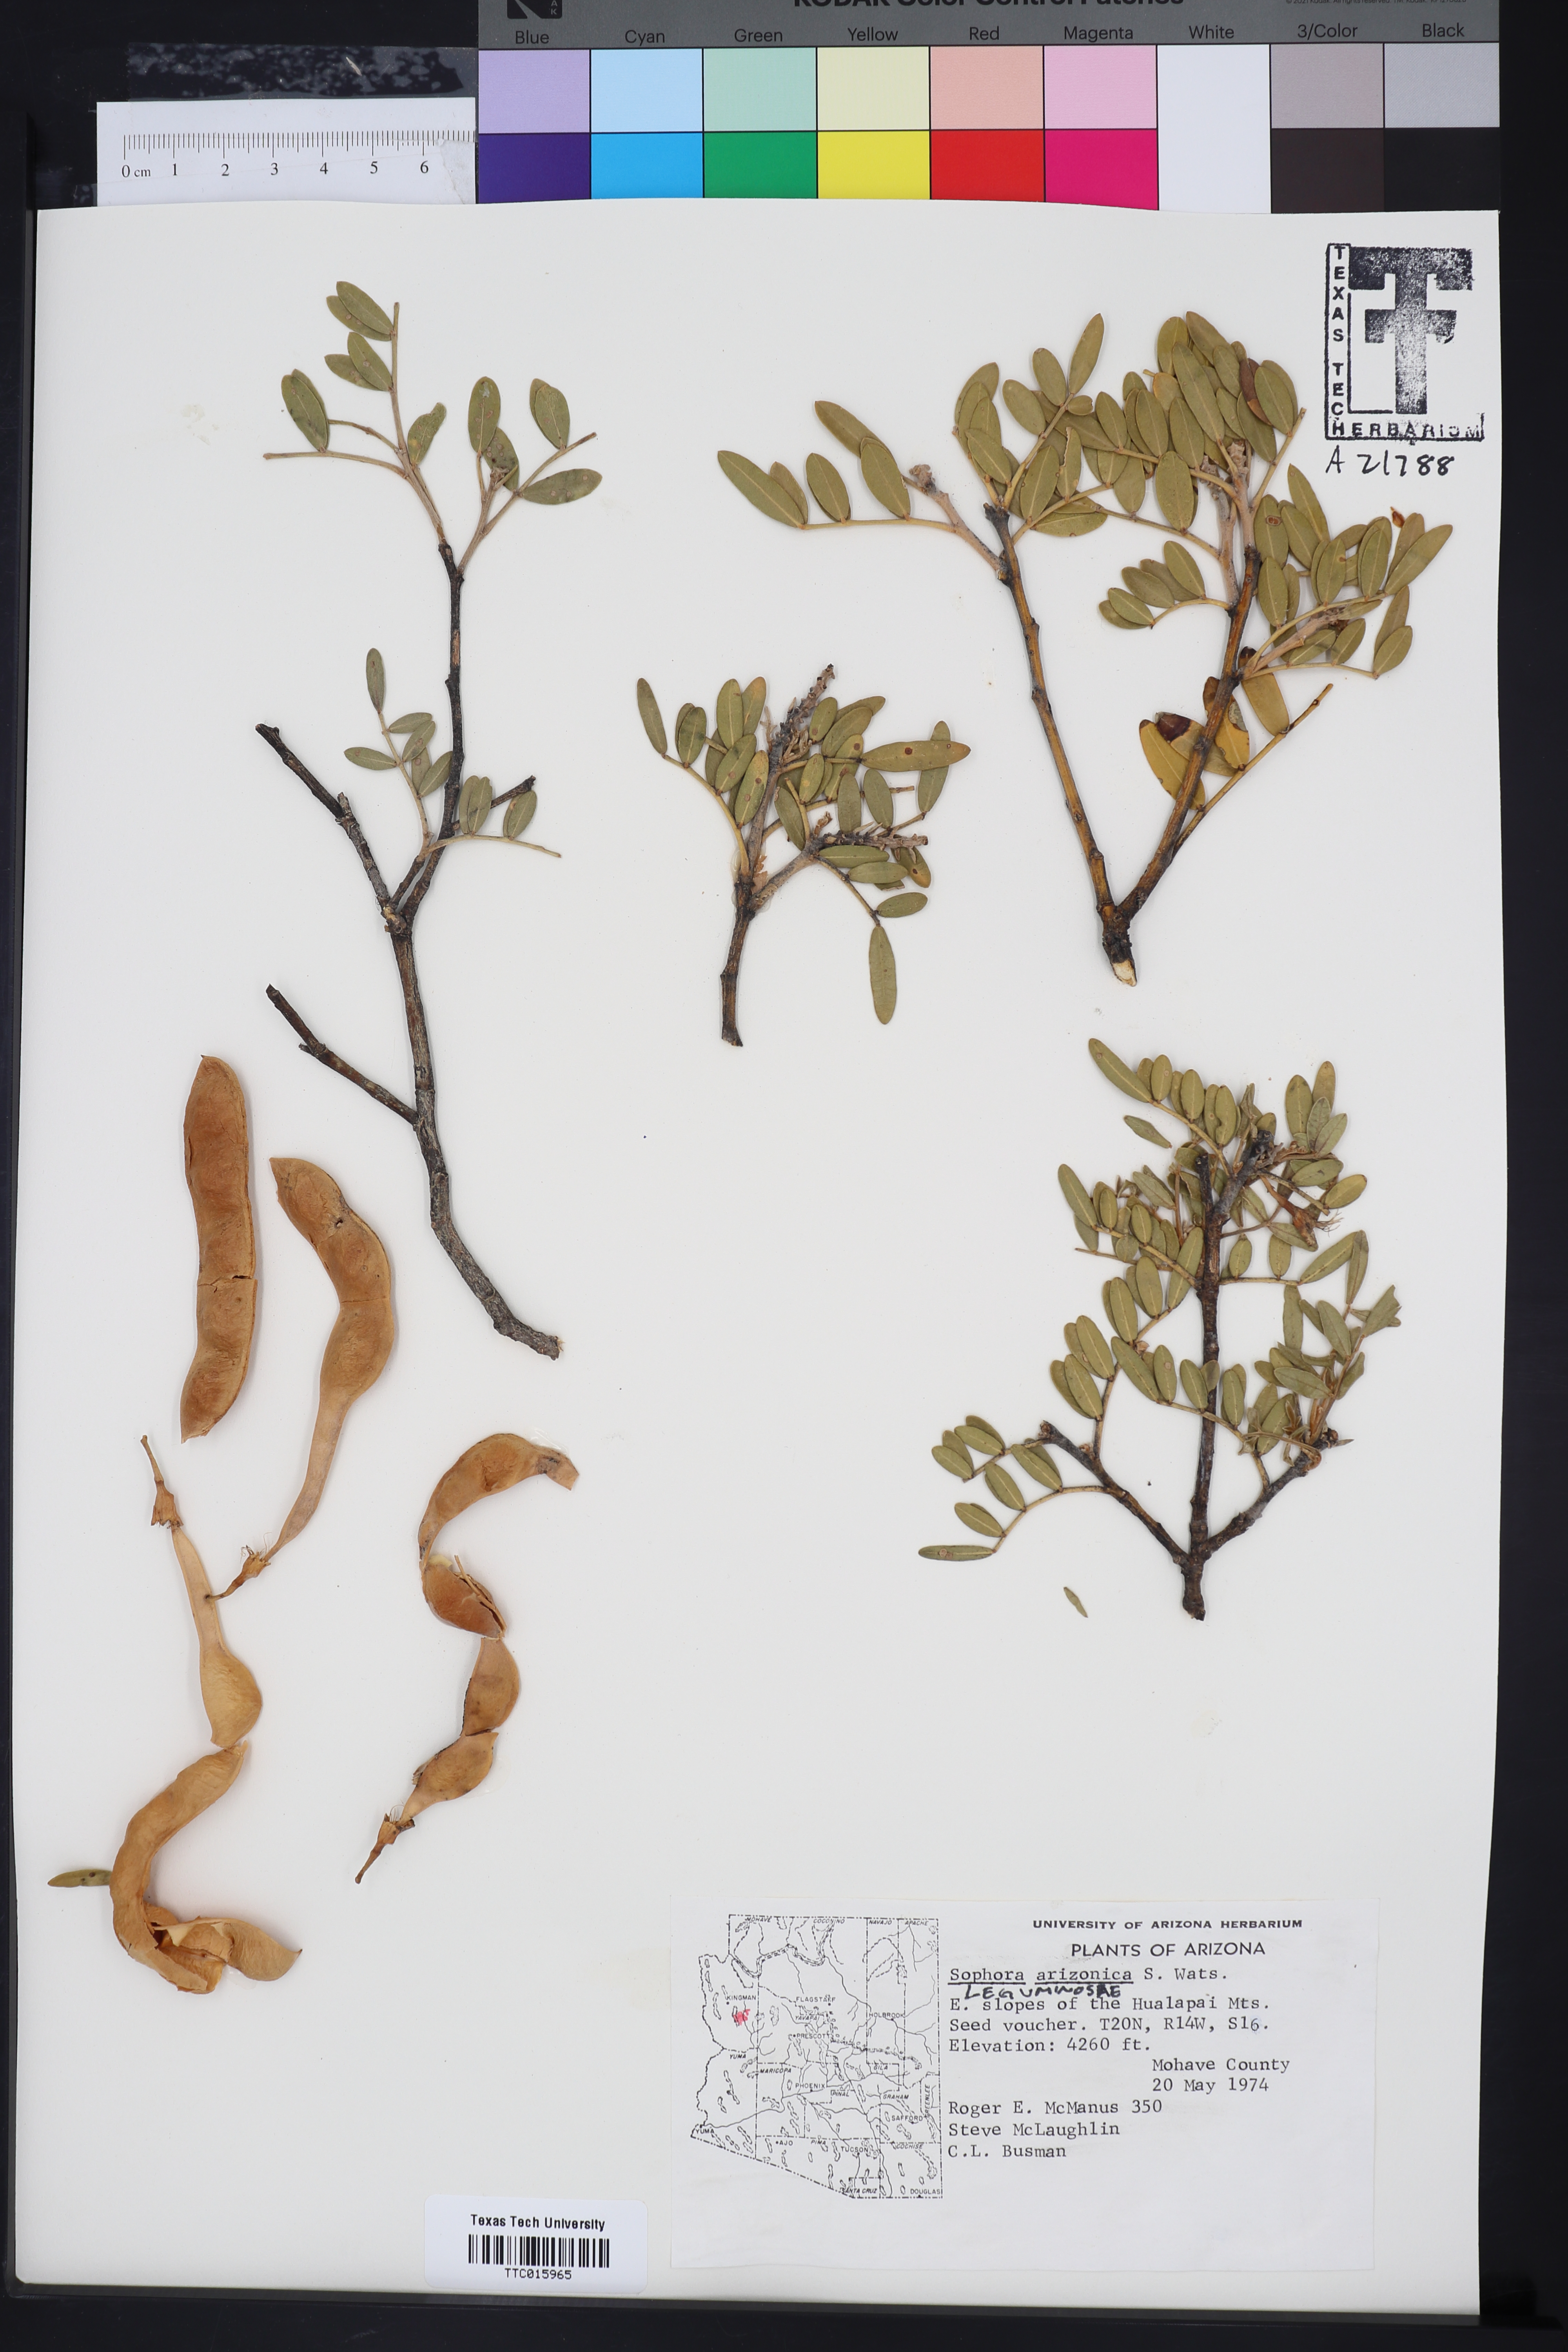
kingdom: Plantae
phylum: Tracheophyta
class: Magnoliopsida
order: Fabales
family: Fabaceae
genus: Dermatophyllum
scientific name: Dermatophyllum arizonicum
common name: Arizona necklace
